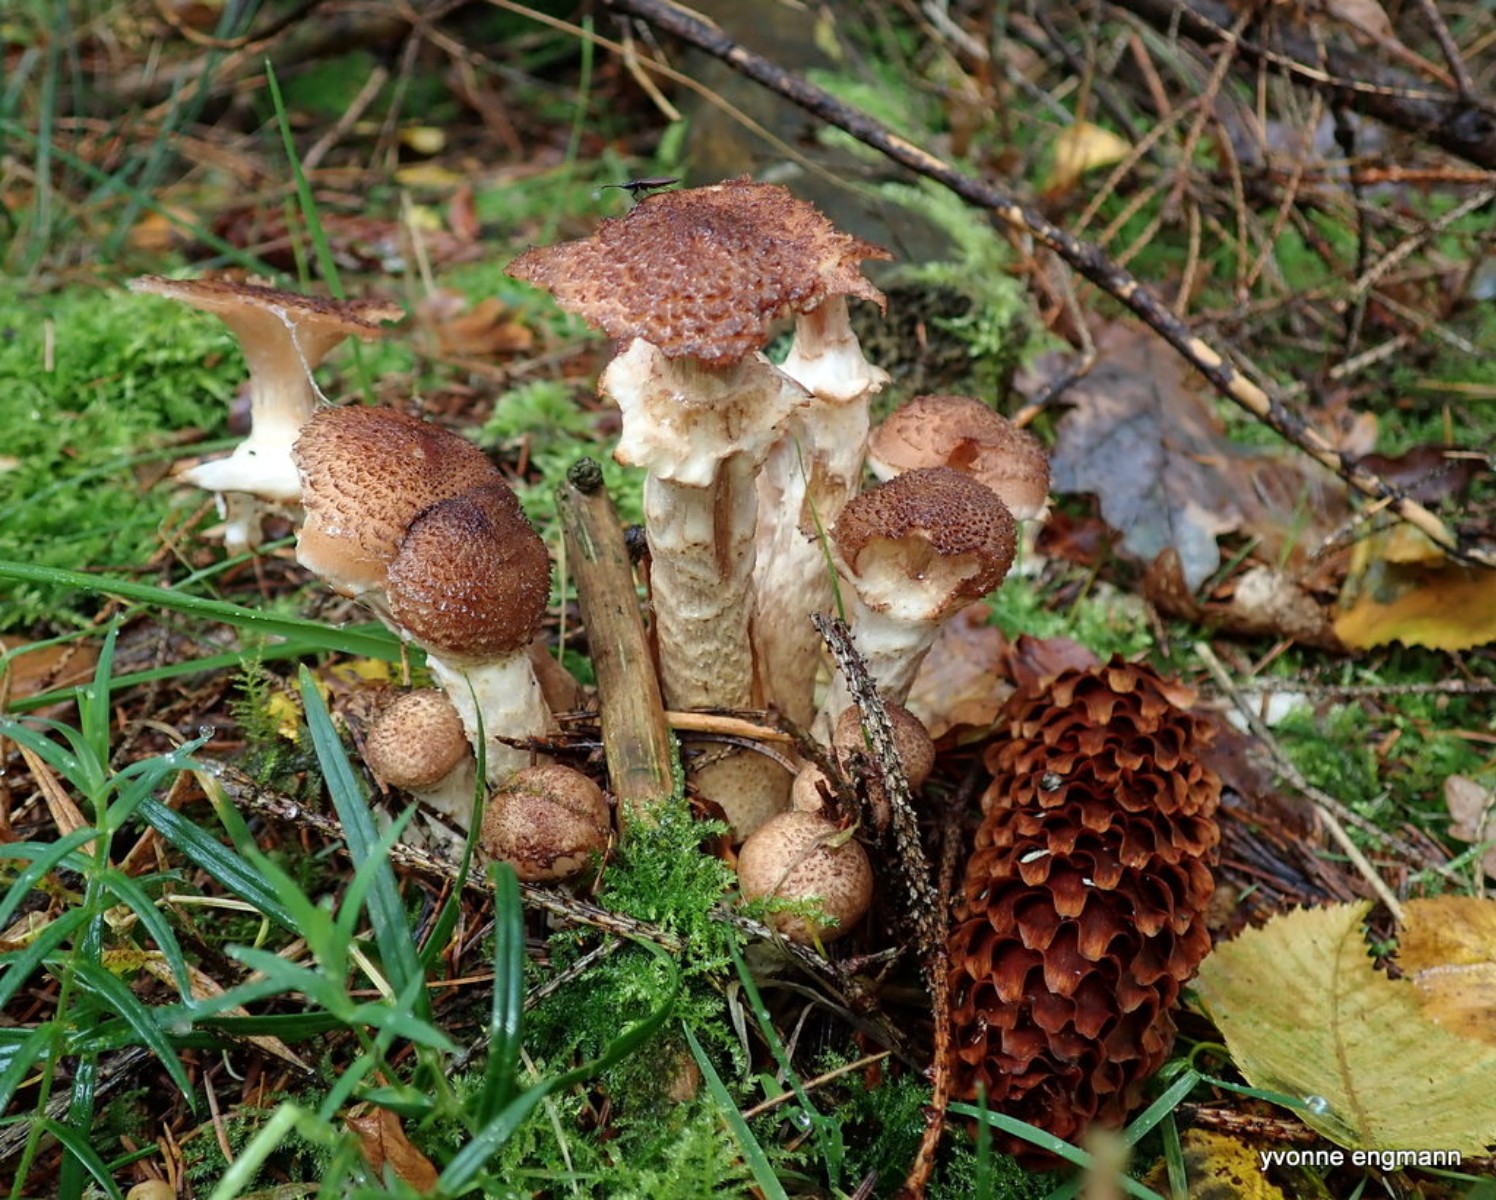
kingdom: Fungi
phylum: Basidiomycota
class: Agaricomycetes
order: Agaricales
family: Physalacriaceae
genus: Armillaria
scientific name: Armillaria ostoyae
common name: mørk honningsvamp
